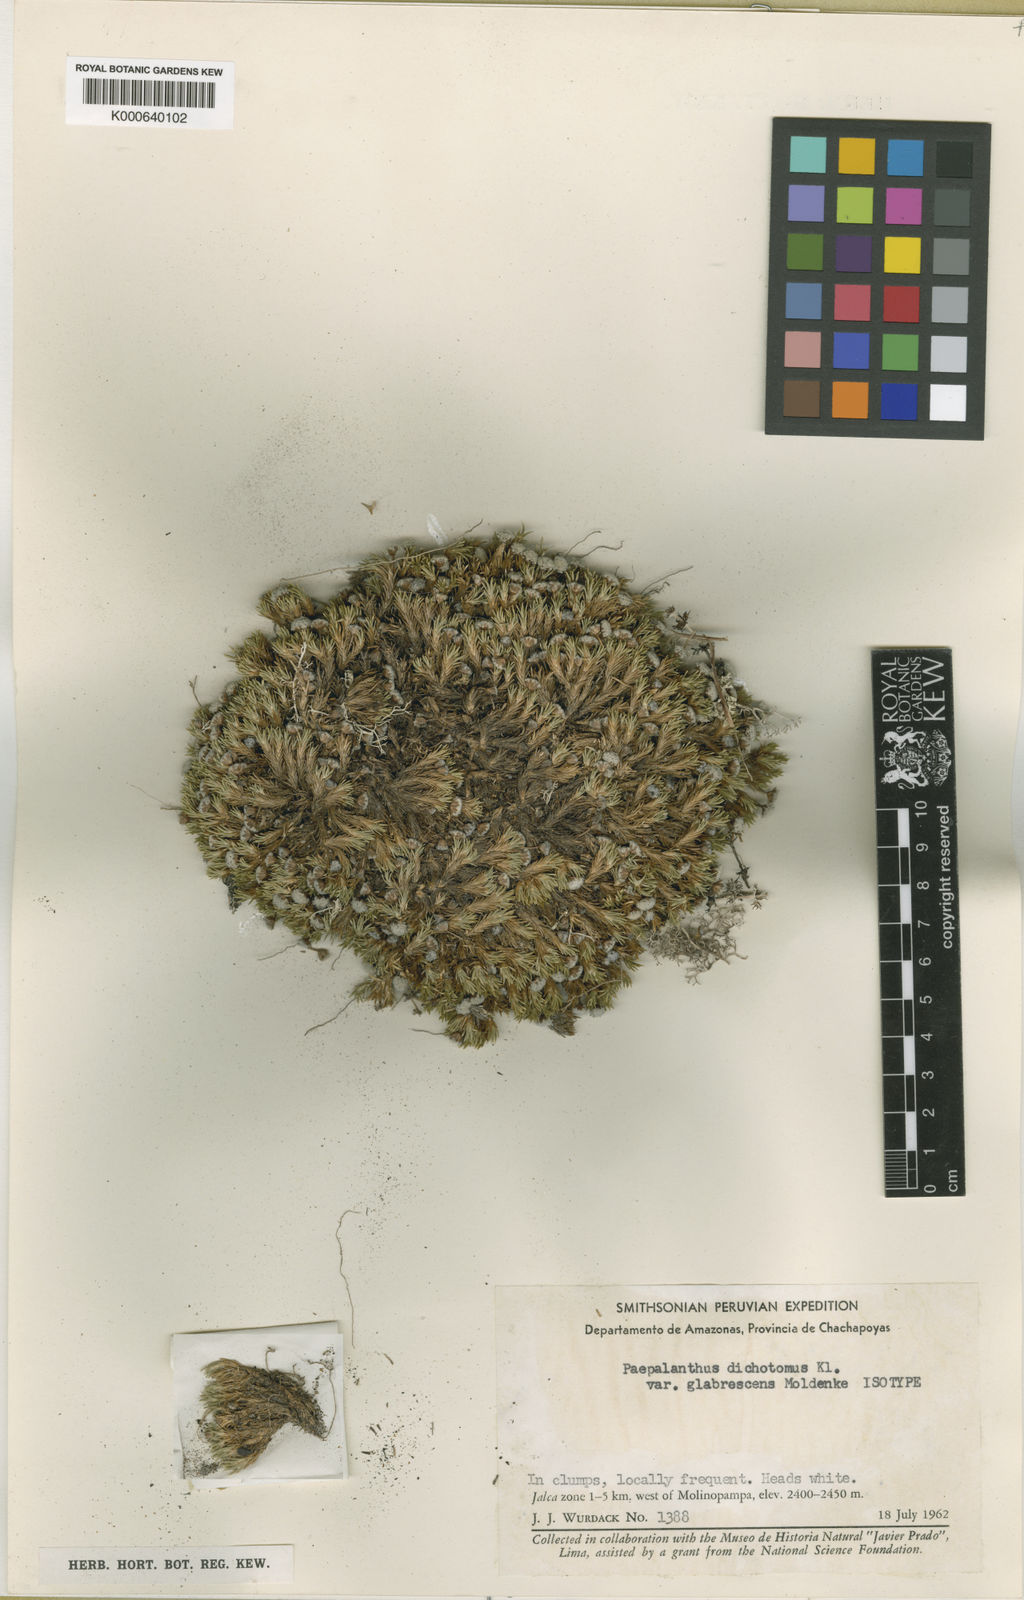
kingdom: Plantae
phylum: Tracheophyta
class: Liliopsida
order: Poales
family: Eriocaulaceae
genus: Paepalanthus
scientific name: Paepalanthus
